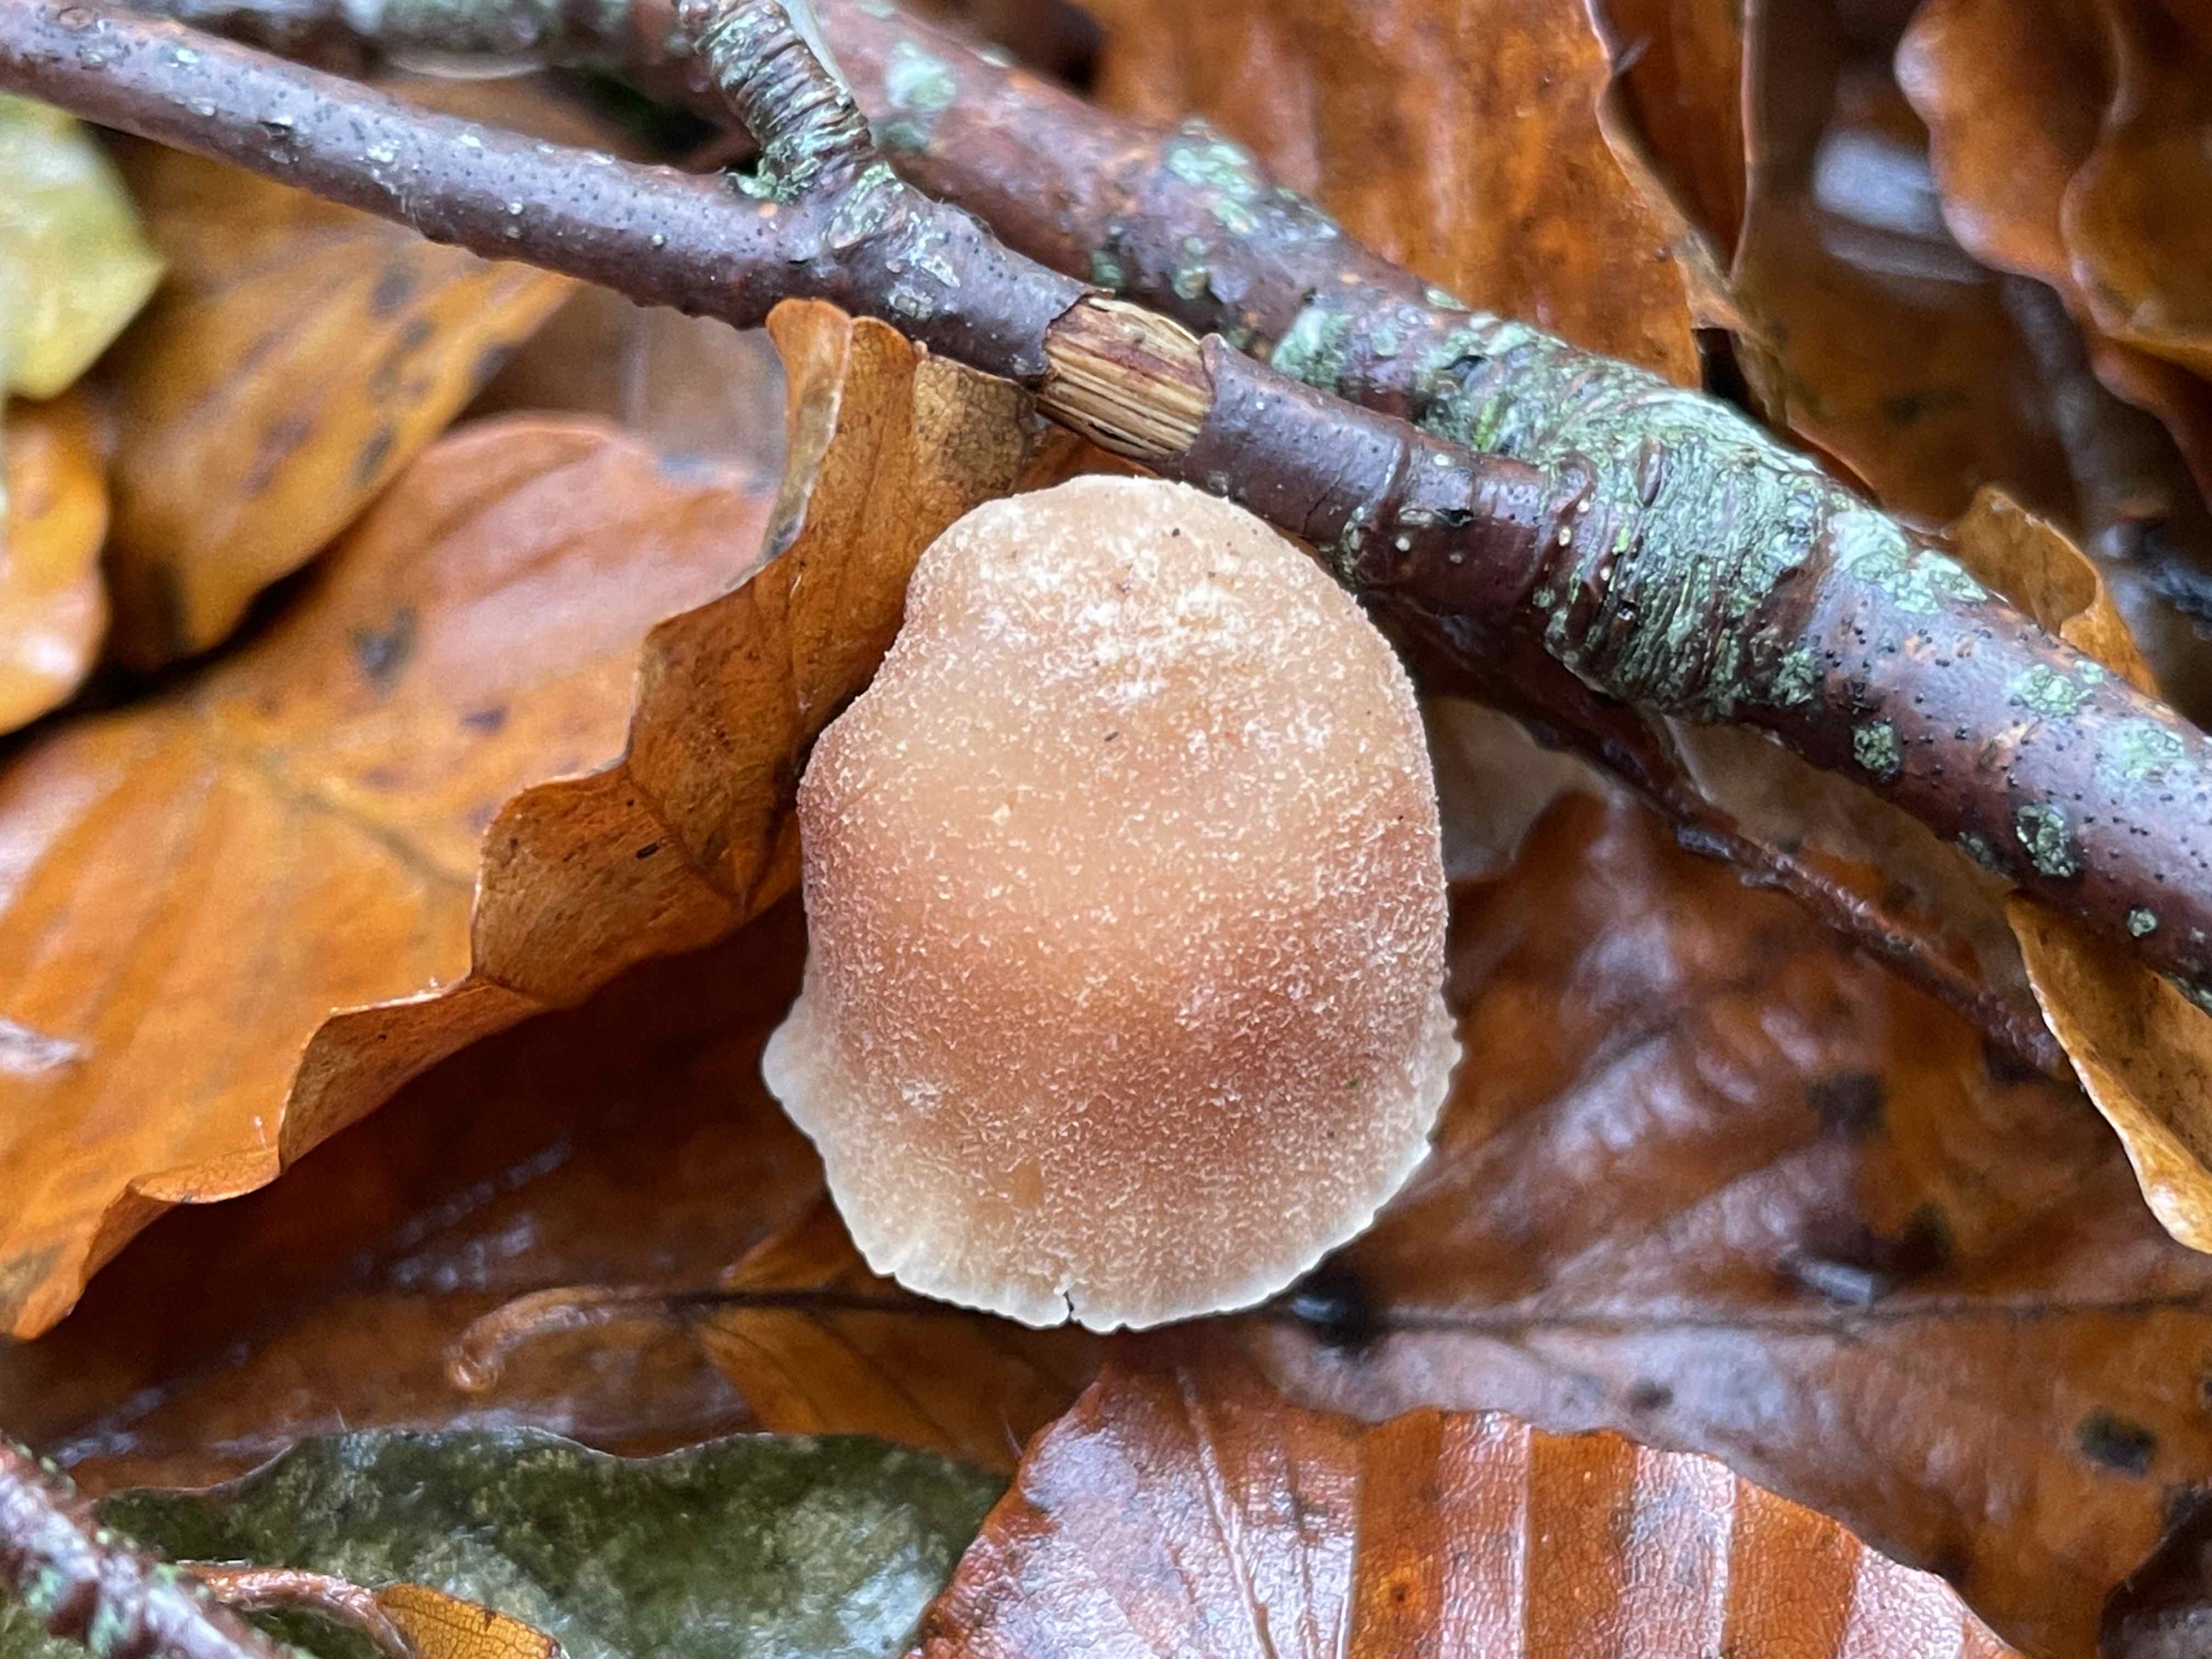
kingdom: Fungi
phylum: Basidiomycota
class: Agaricomycetes
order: Agaricales
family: Tubariaceae
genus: Tubaria
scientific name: Tubaria furfuracea
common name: kliddet fnughat
